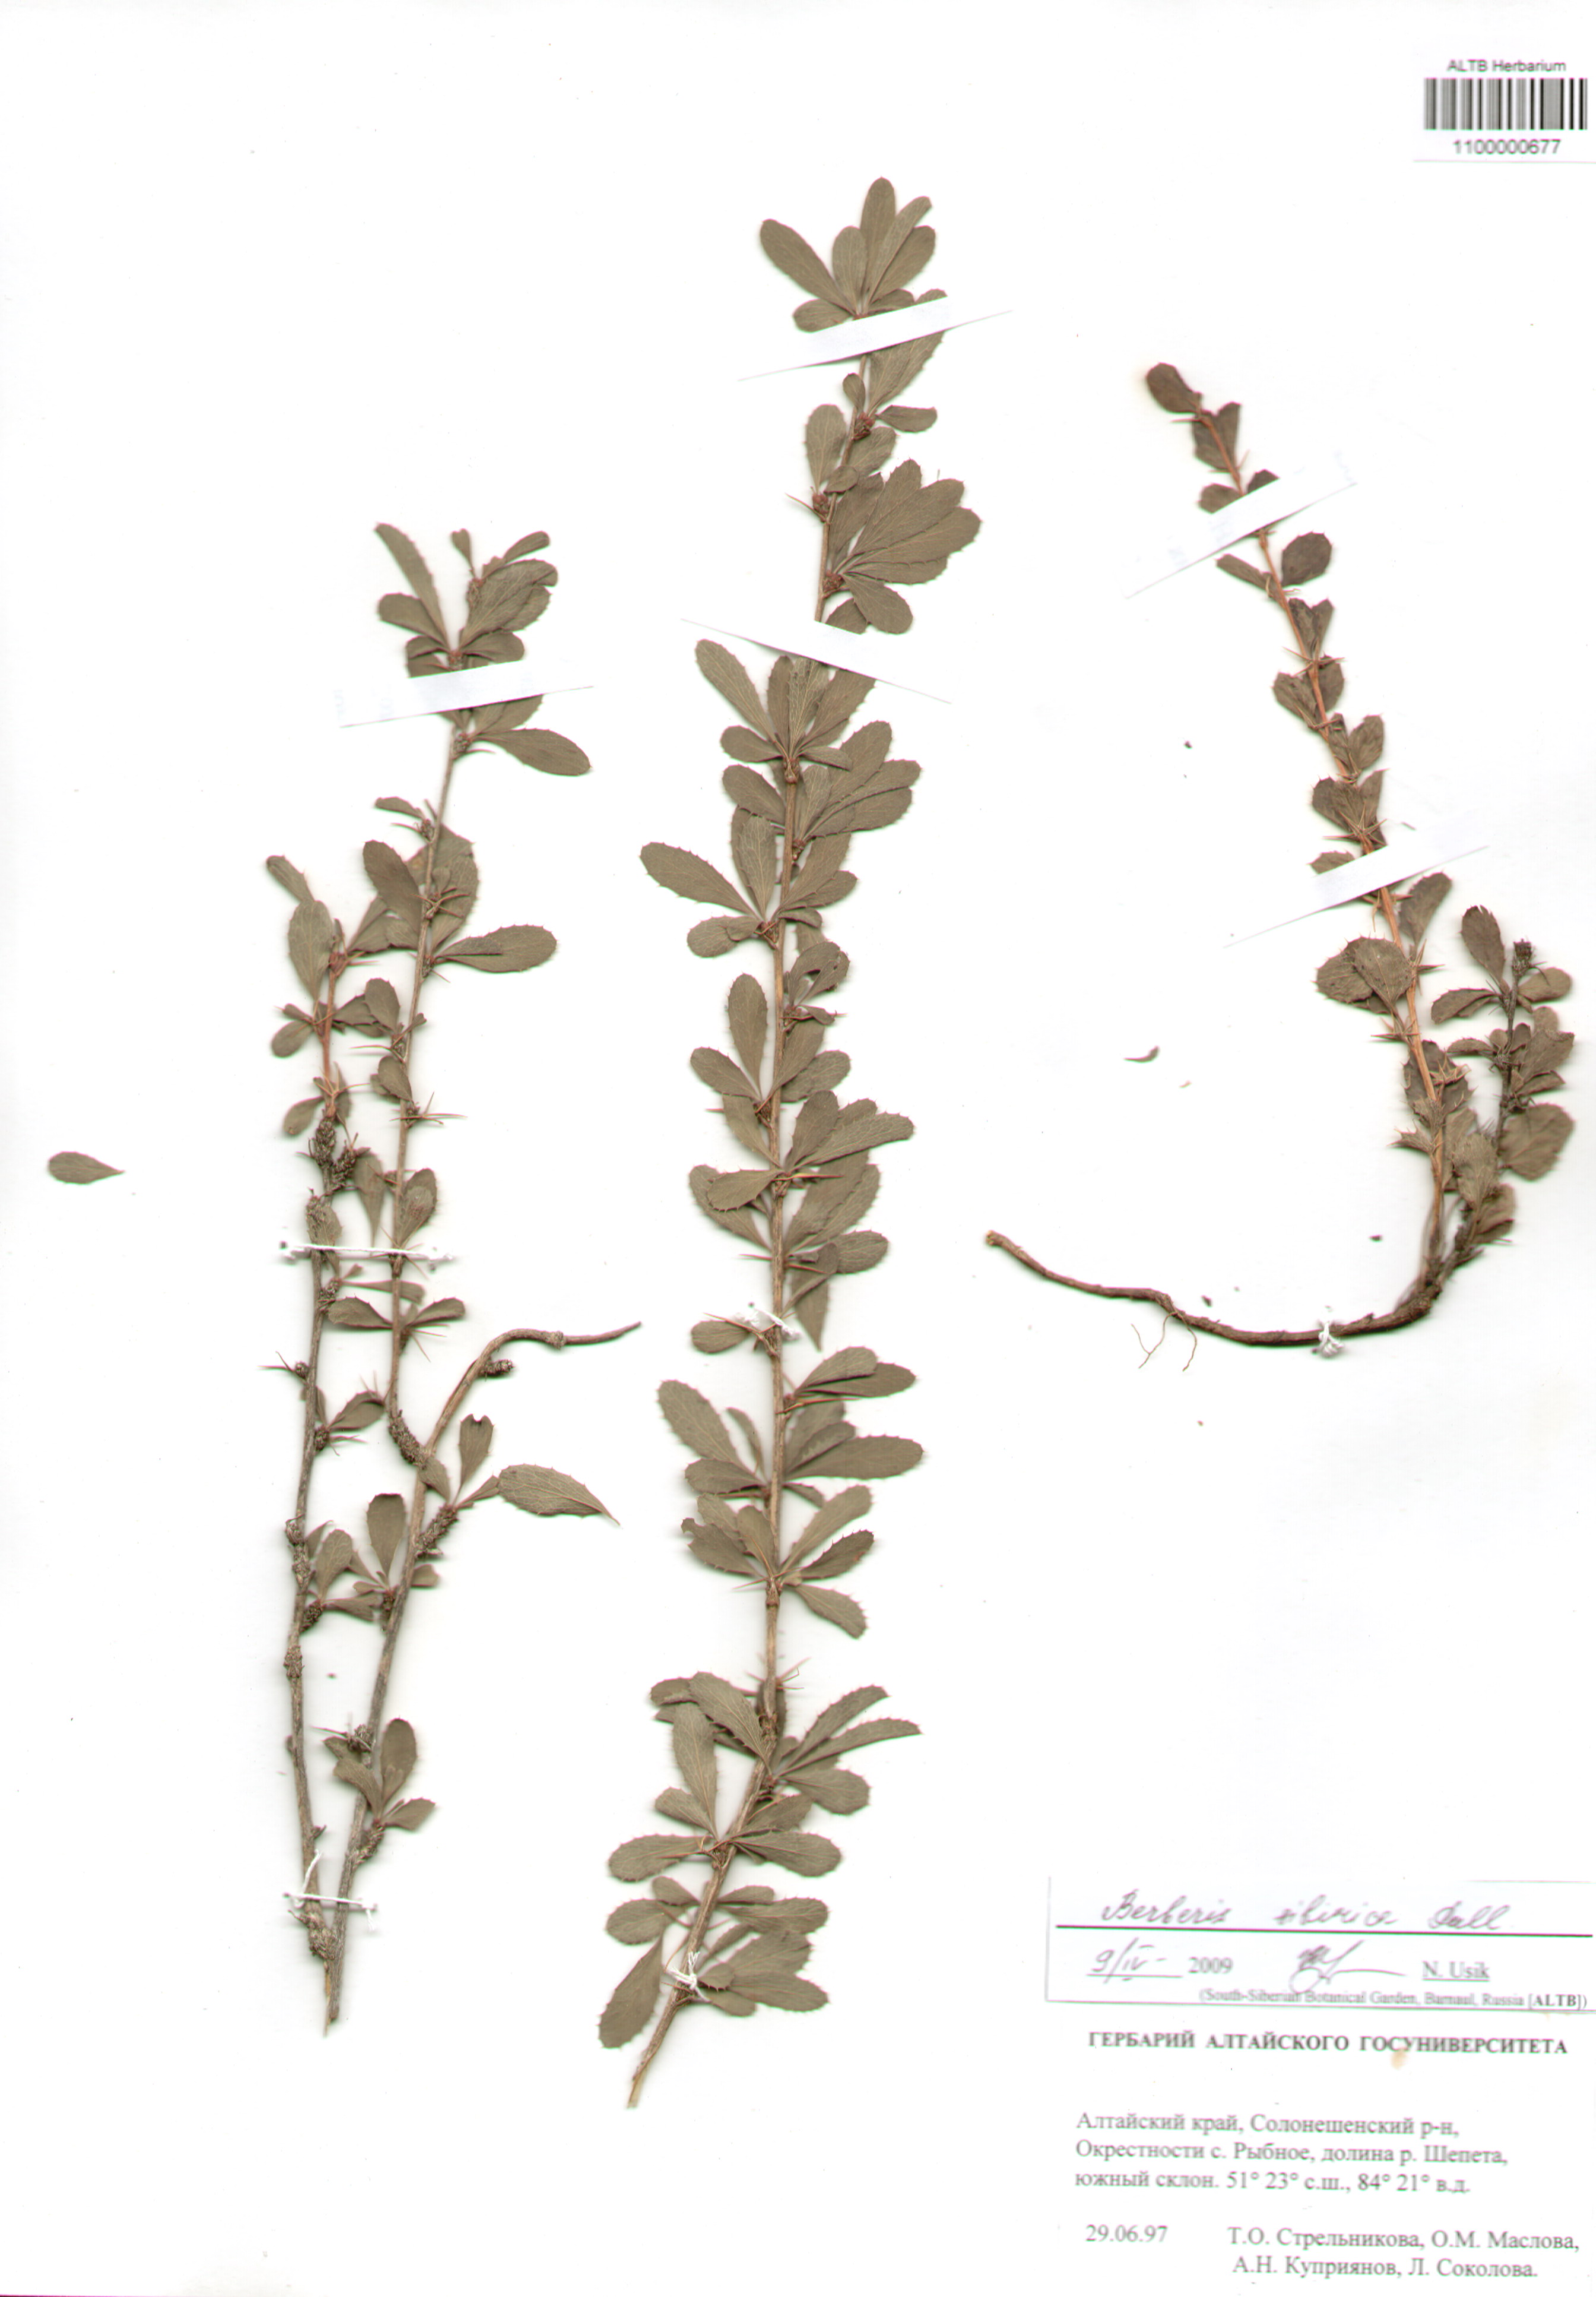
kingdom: Plantae
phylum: Tracheophyta
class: Magnoliopsida
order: Ranunculales
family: Berberidaceae
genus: Berberis
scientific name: Berberis sibirica
